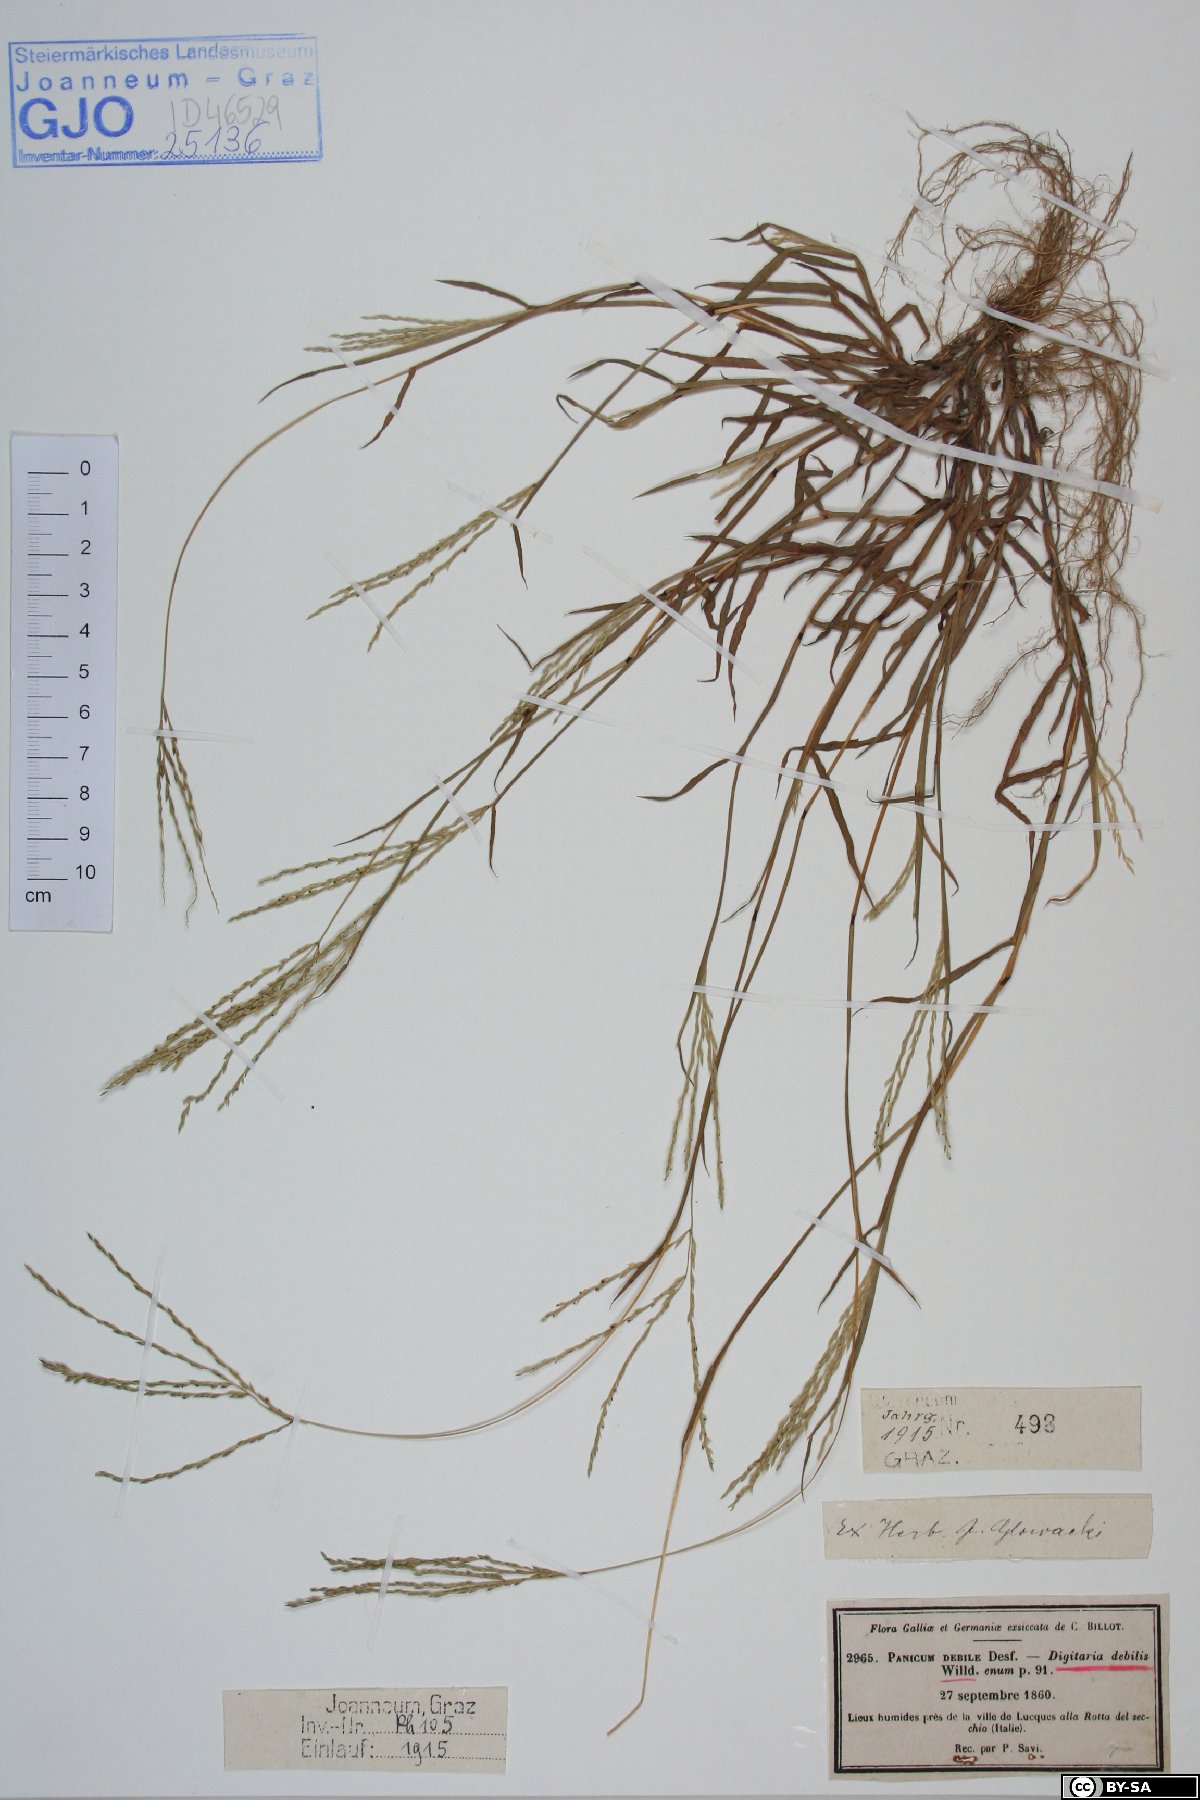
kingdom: Plantae
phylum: Tracheophyta
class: Liliopsida
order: Poales
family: Poaceae
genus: Digitaria
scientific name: Digitaria debilis
